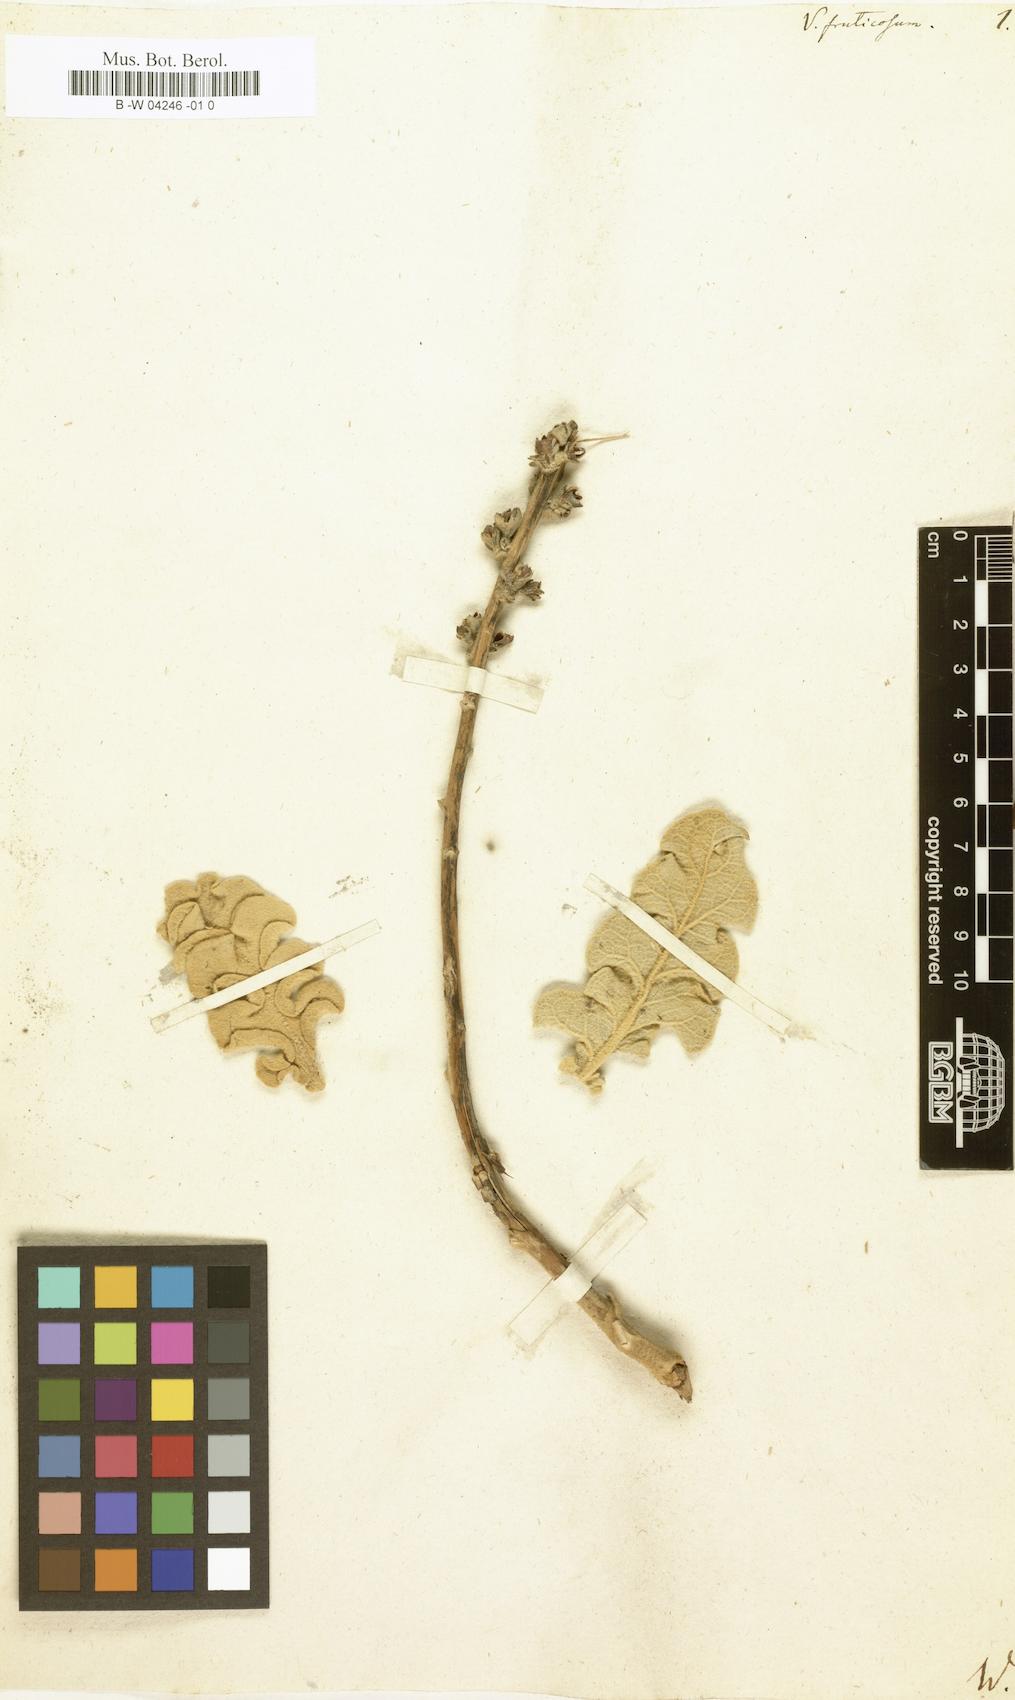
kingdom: Plantae
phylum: Tracheophyta
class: Magnoliopsida
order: Lamiales
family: Scrophulariaceae
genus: Verbascum
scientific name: Verbascum fruticulosum
